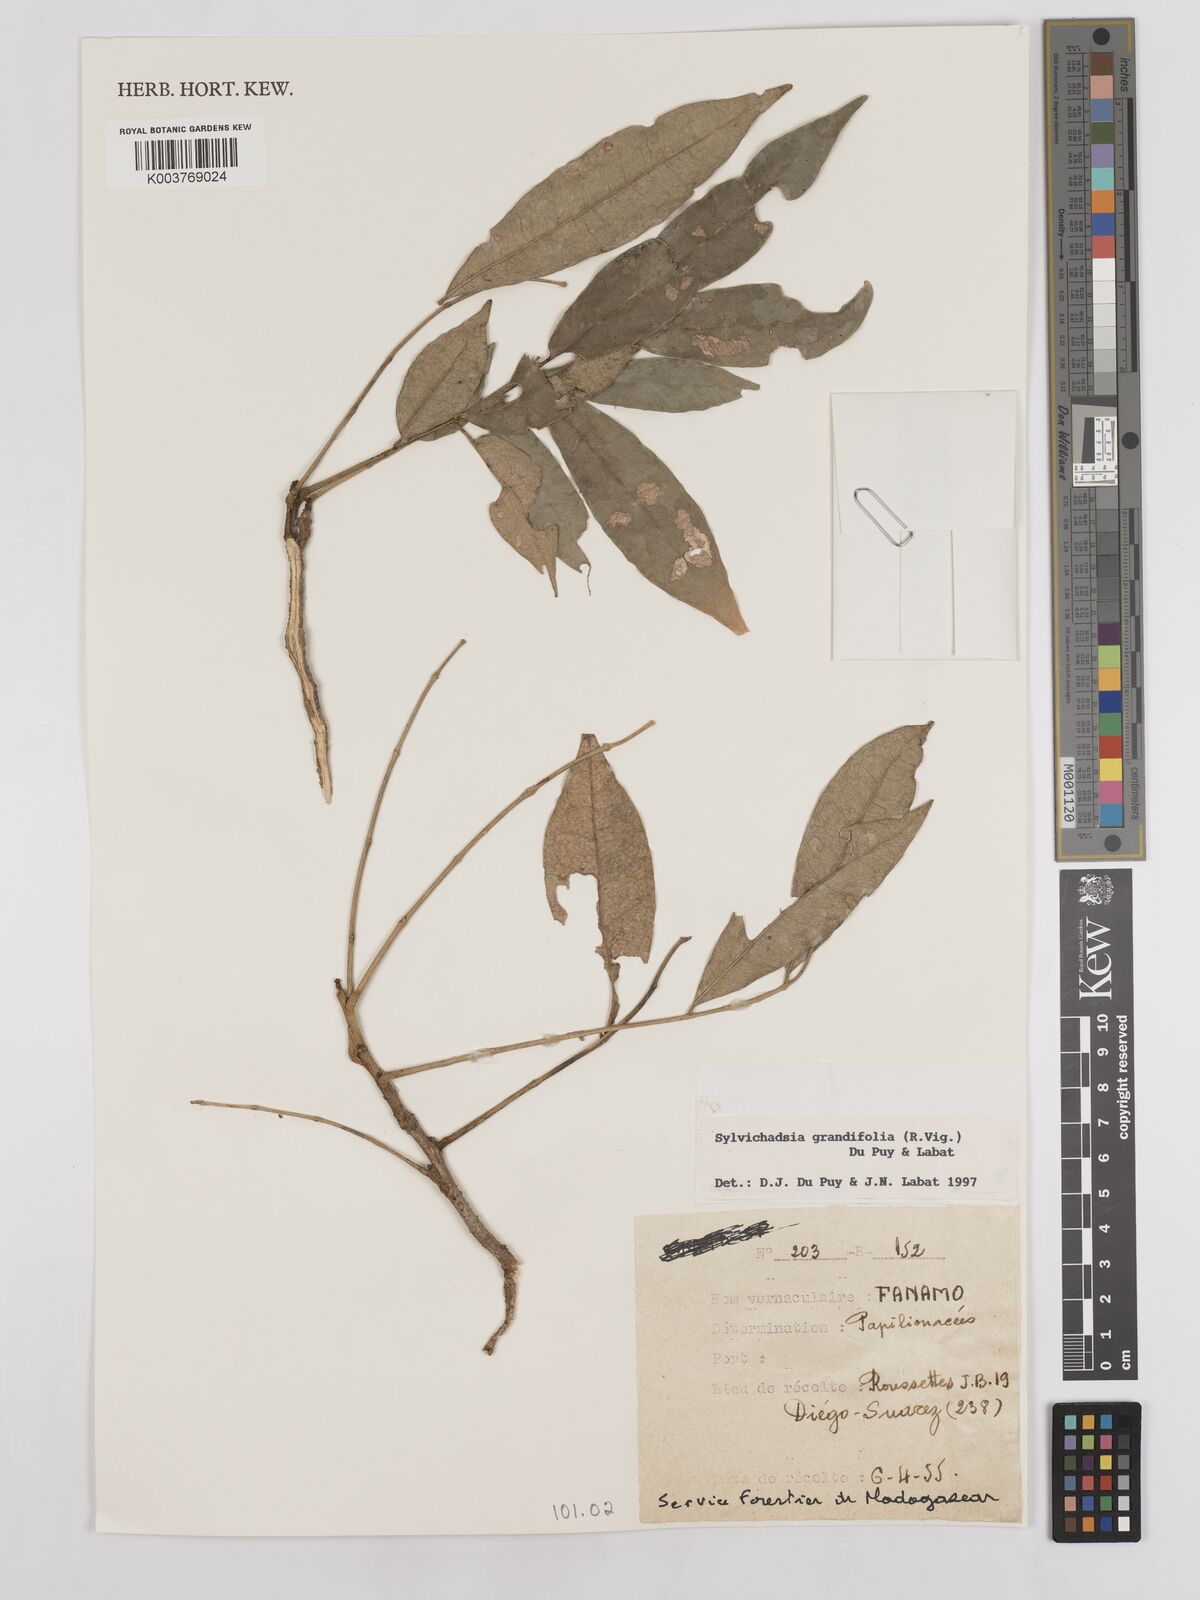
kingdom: Plantae
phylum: Tracheophyta
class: Magnoliopsida
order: Fabales
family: Fabaceae
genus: Sylvichadsia
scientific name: Sylvichadsia grandifolia
